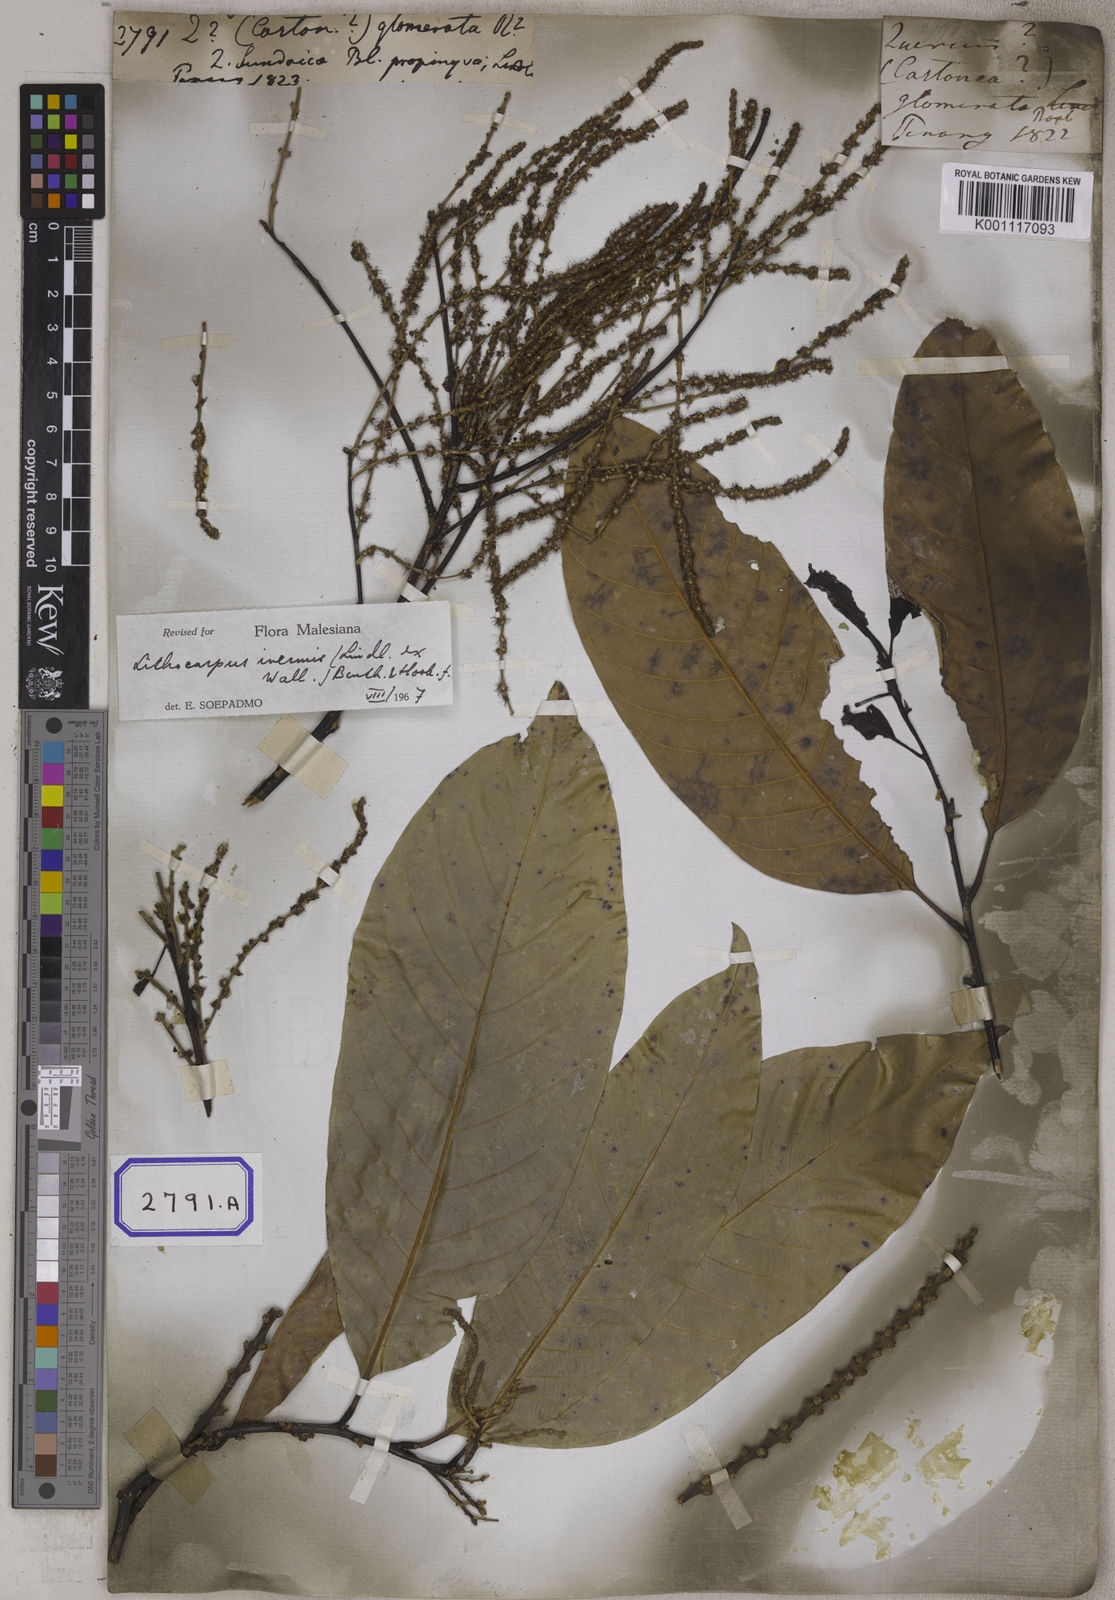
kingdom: Plantae
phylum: Tracheophyta
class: Magnoliopsida
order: Fagales
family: Fagaceae
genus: Castanopsis
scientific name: Castanopsis inermis
